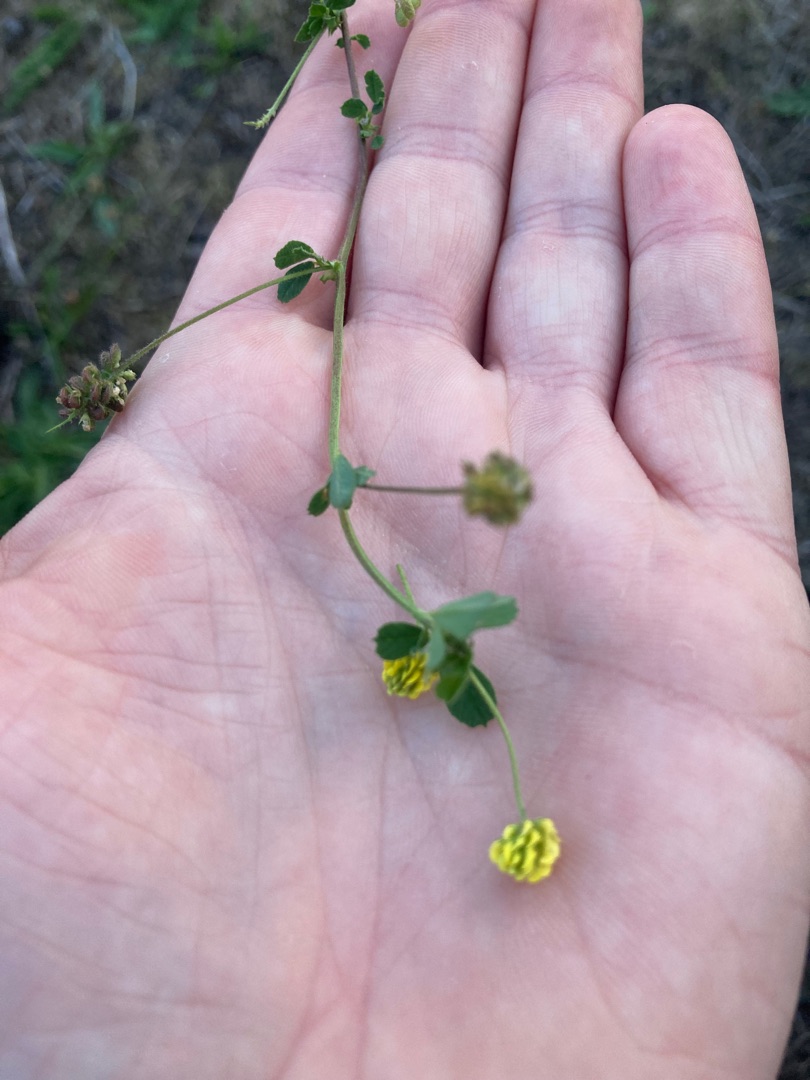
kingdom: Plantae
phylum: Tracheophyta
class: Magnoliopsida
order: Fabales
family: Fabaceae
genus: Medicago
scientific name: Medicago lupulina
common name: Humle-sneglebælg
